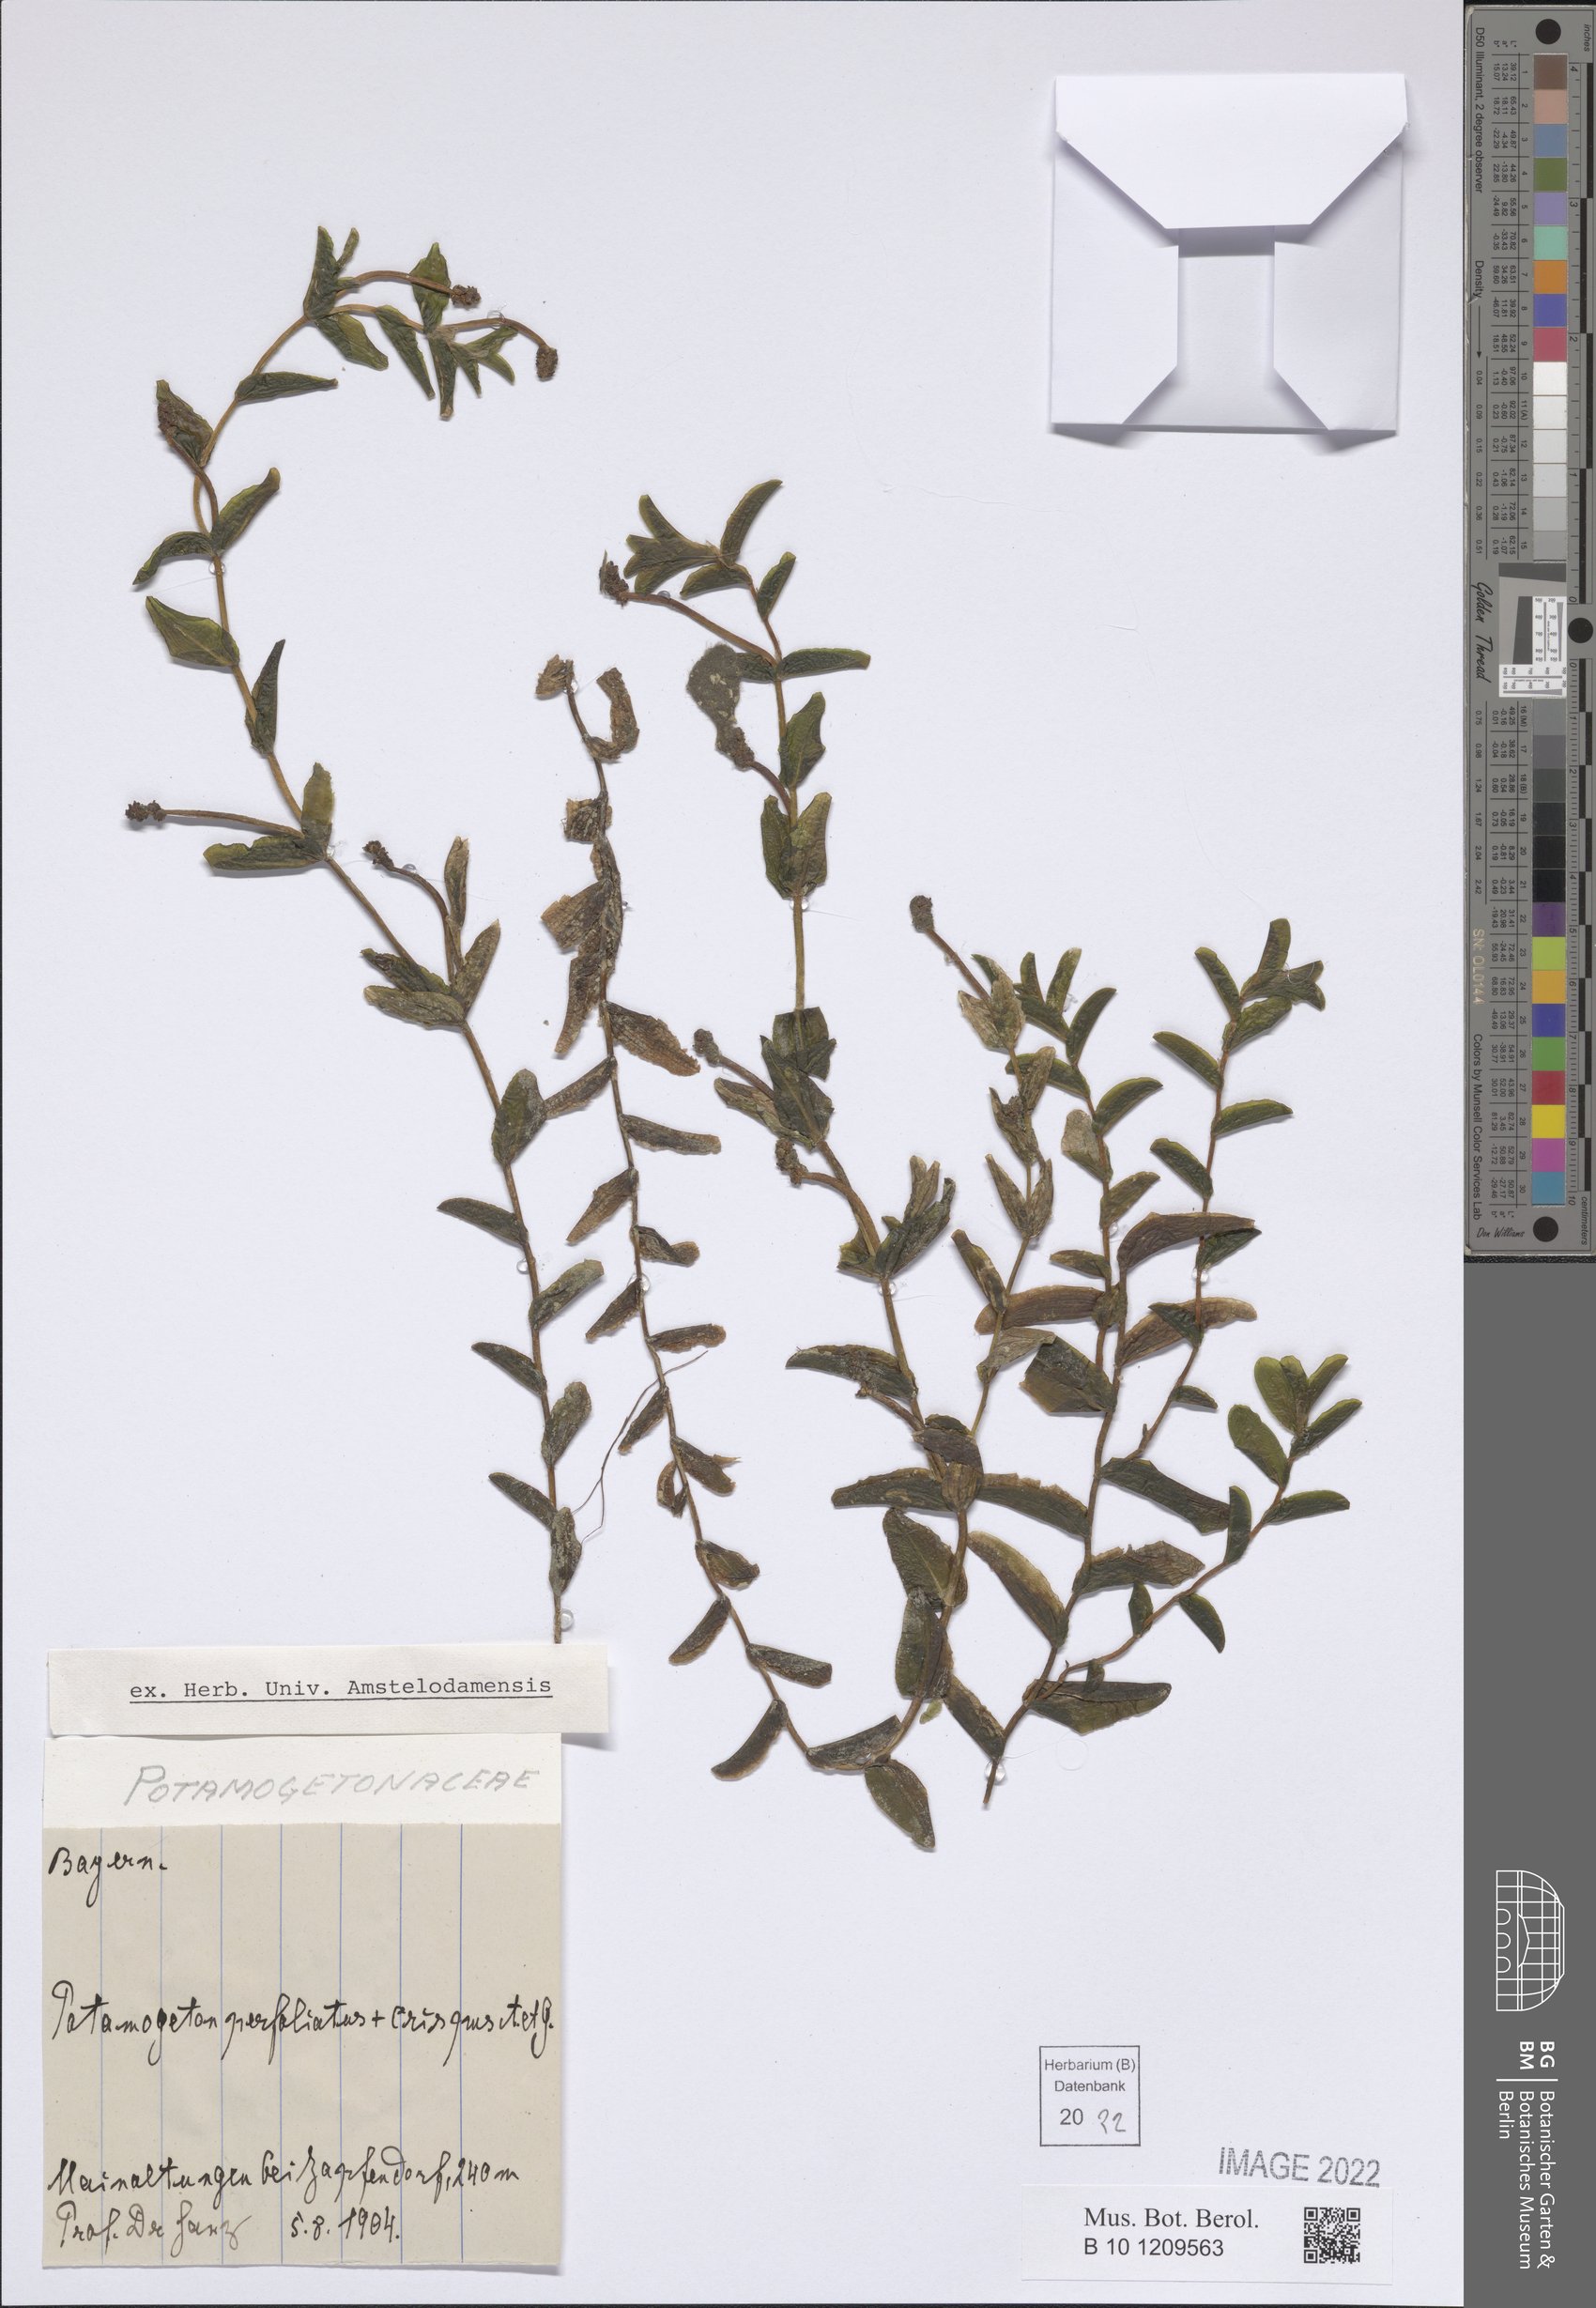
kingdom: Plantae
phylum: Tracheophyta
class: Liliopsida
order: Alismatales
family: Potamogetonaceae
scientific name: Potamogetonaceae
